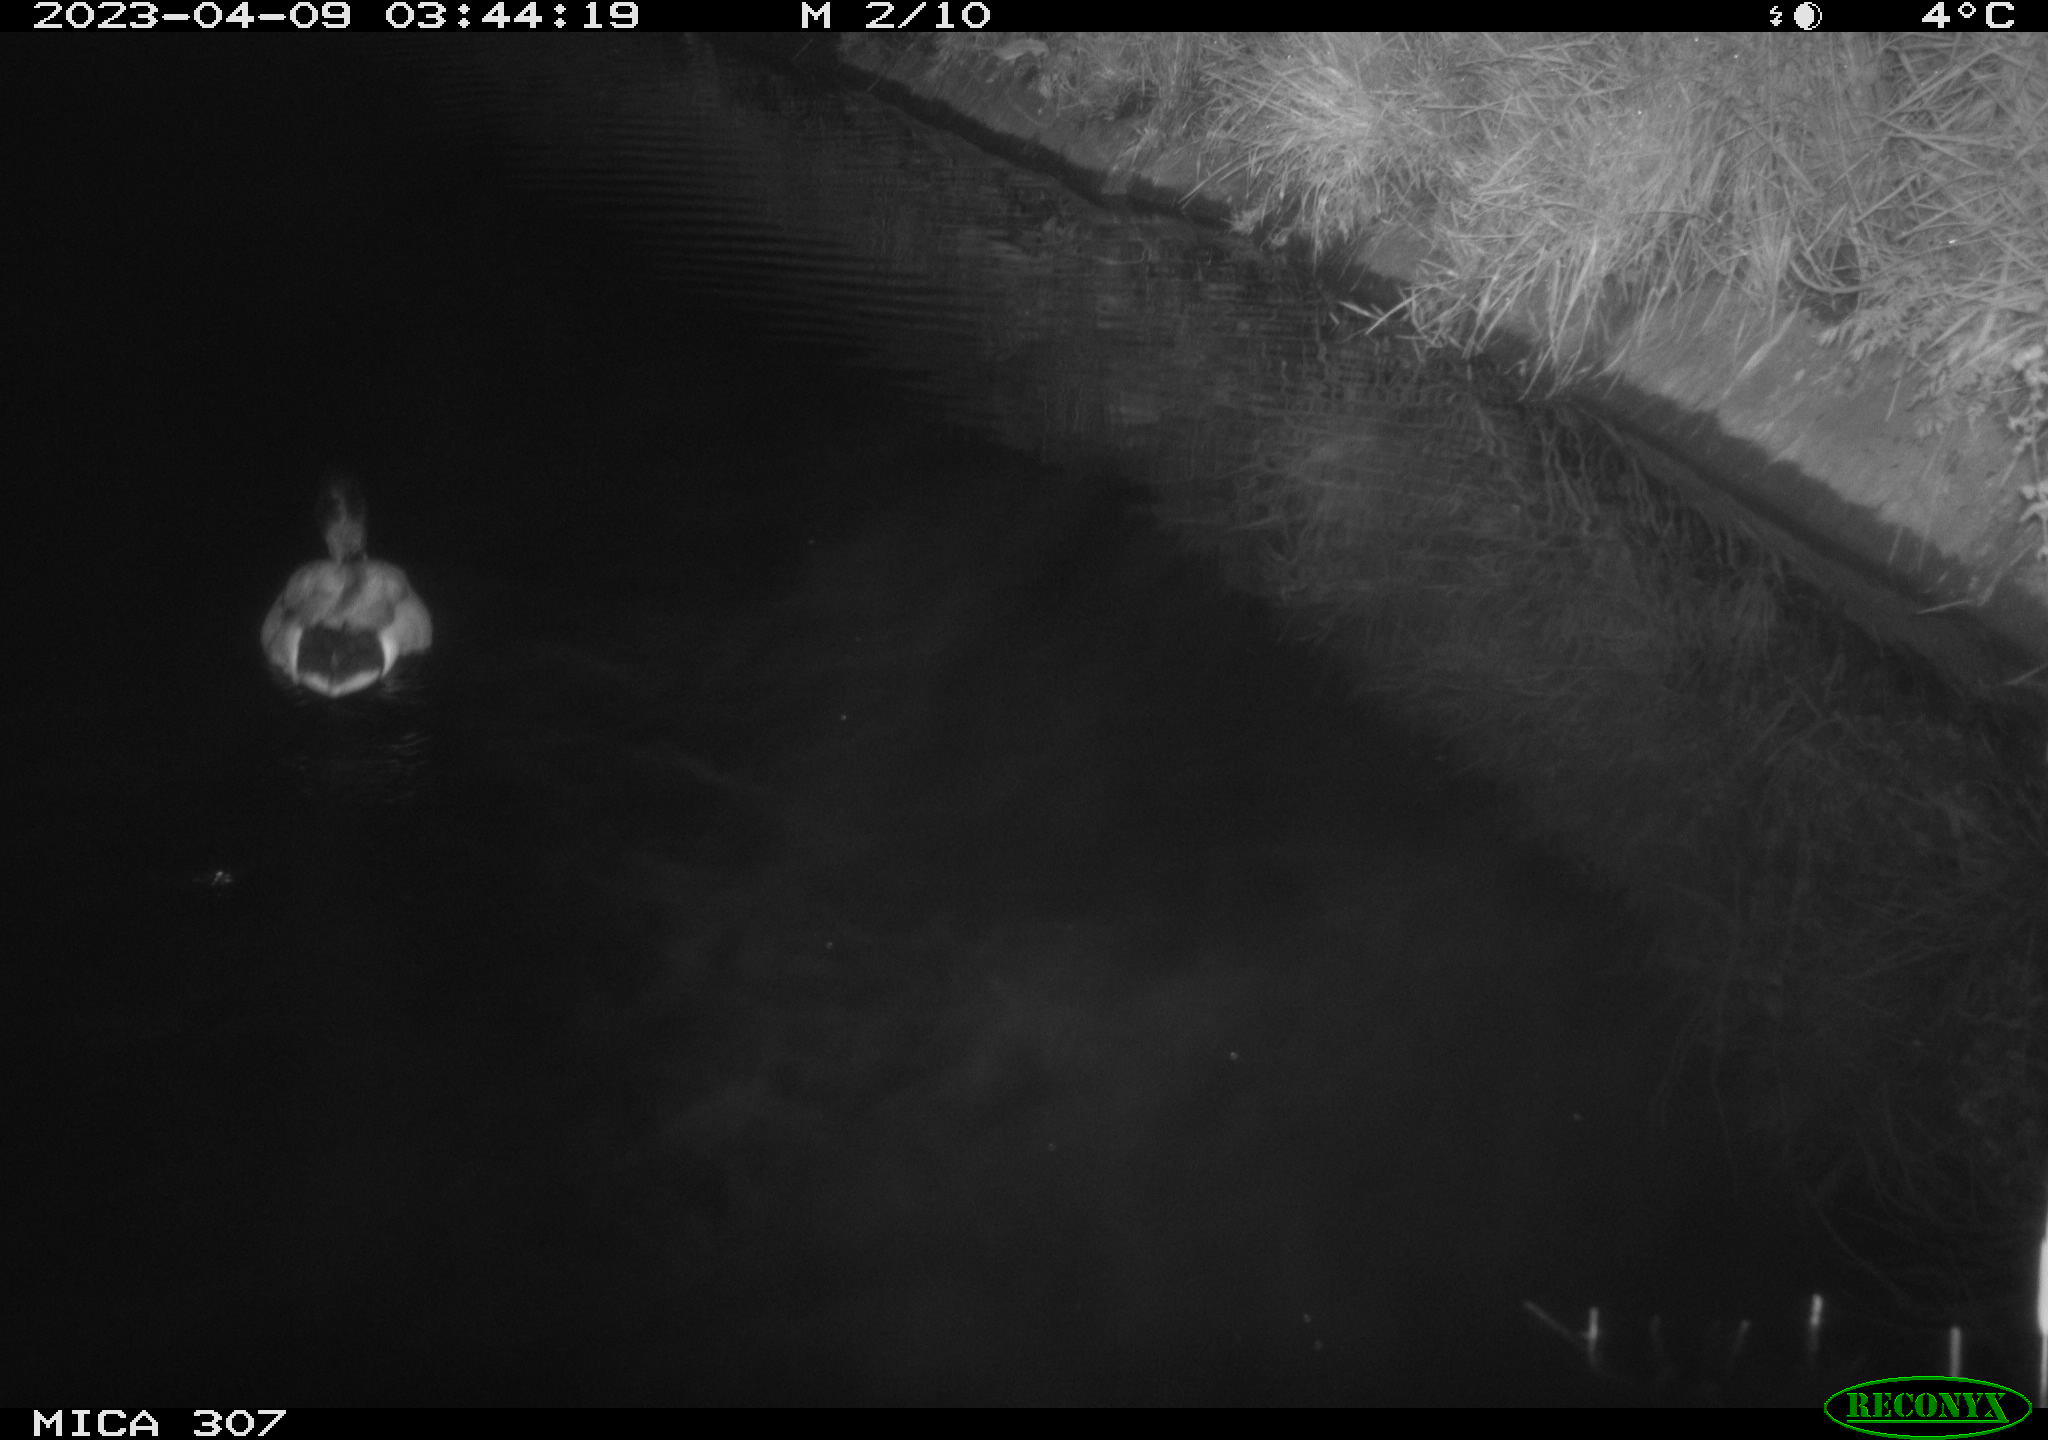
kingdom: Animalia
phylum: Chordata
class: Aves
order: Anseriformes
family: Anatidae
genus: Anas
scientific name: Anas
